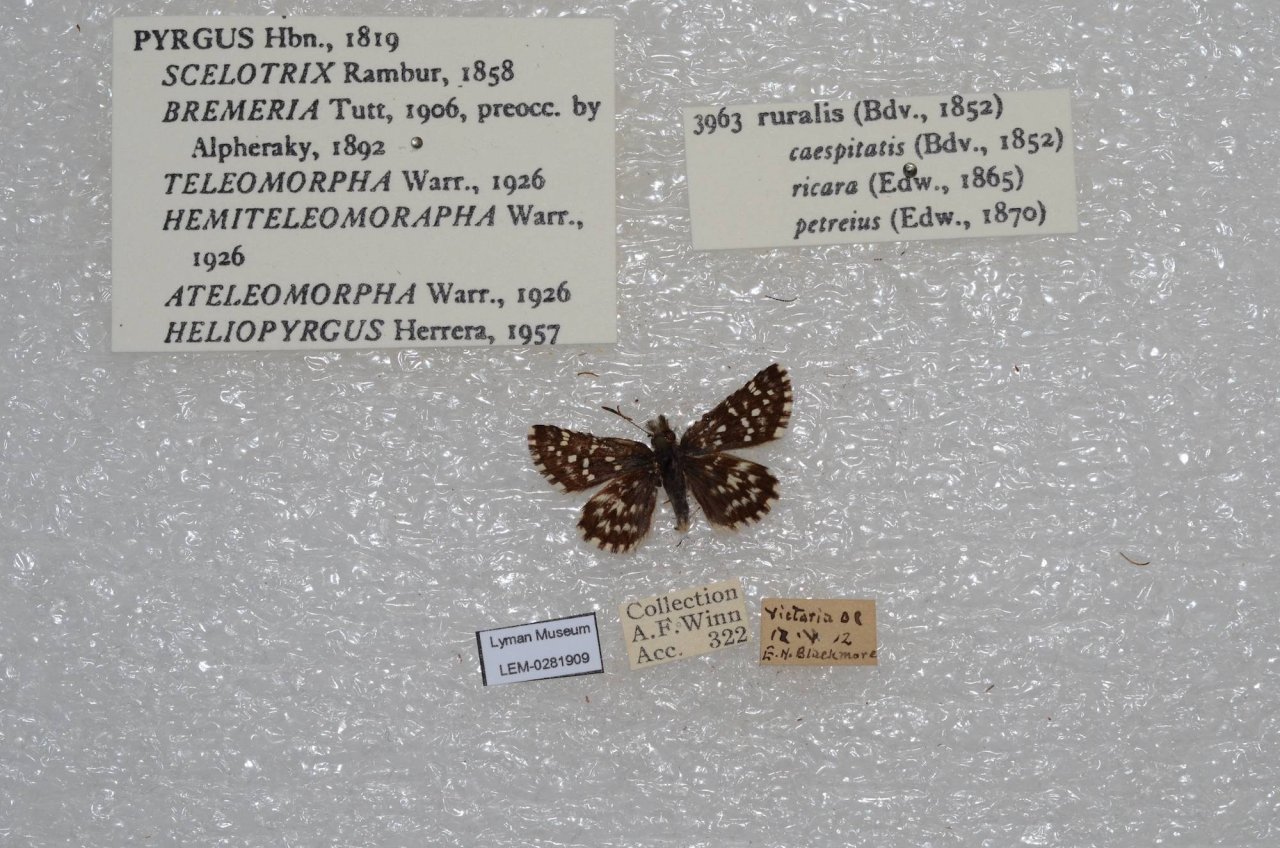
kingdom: Animalia
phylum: Arthropoda
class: Insecta
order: Lepidoptera
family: Hesperiidae
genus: Pyrgus
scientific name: Pyrgus ruralis
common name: Two-banded Checkered-Skipper
